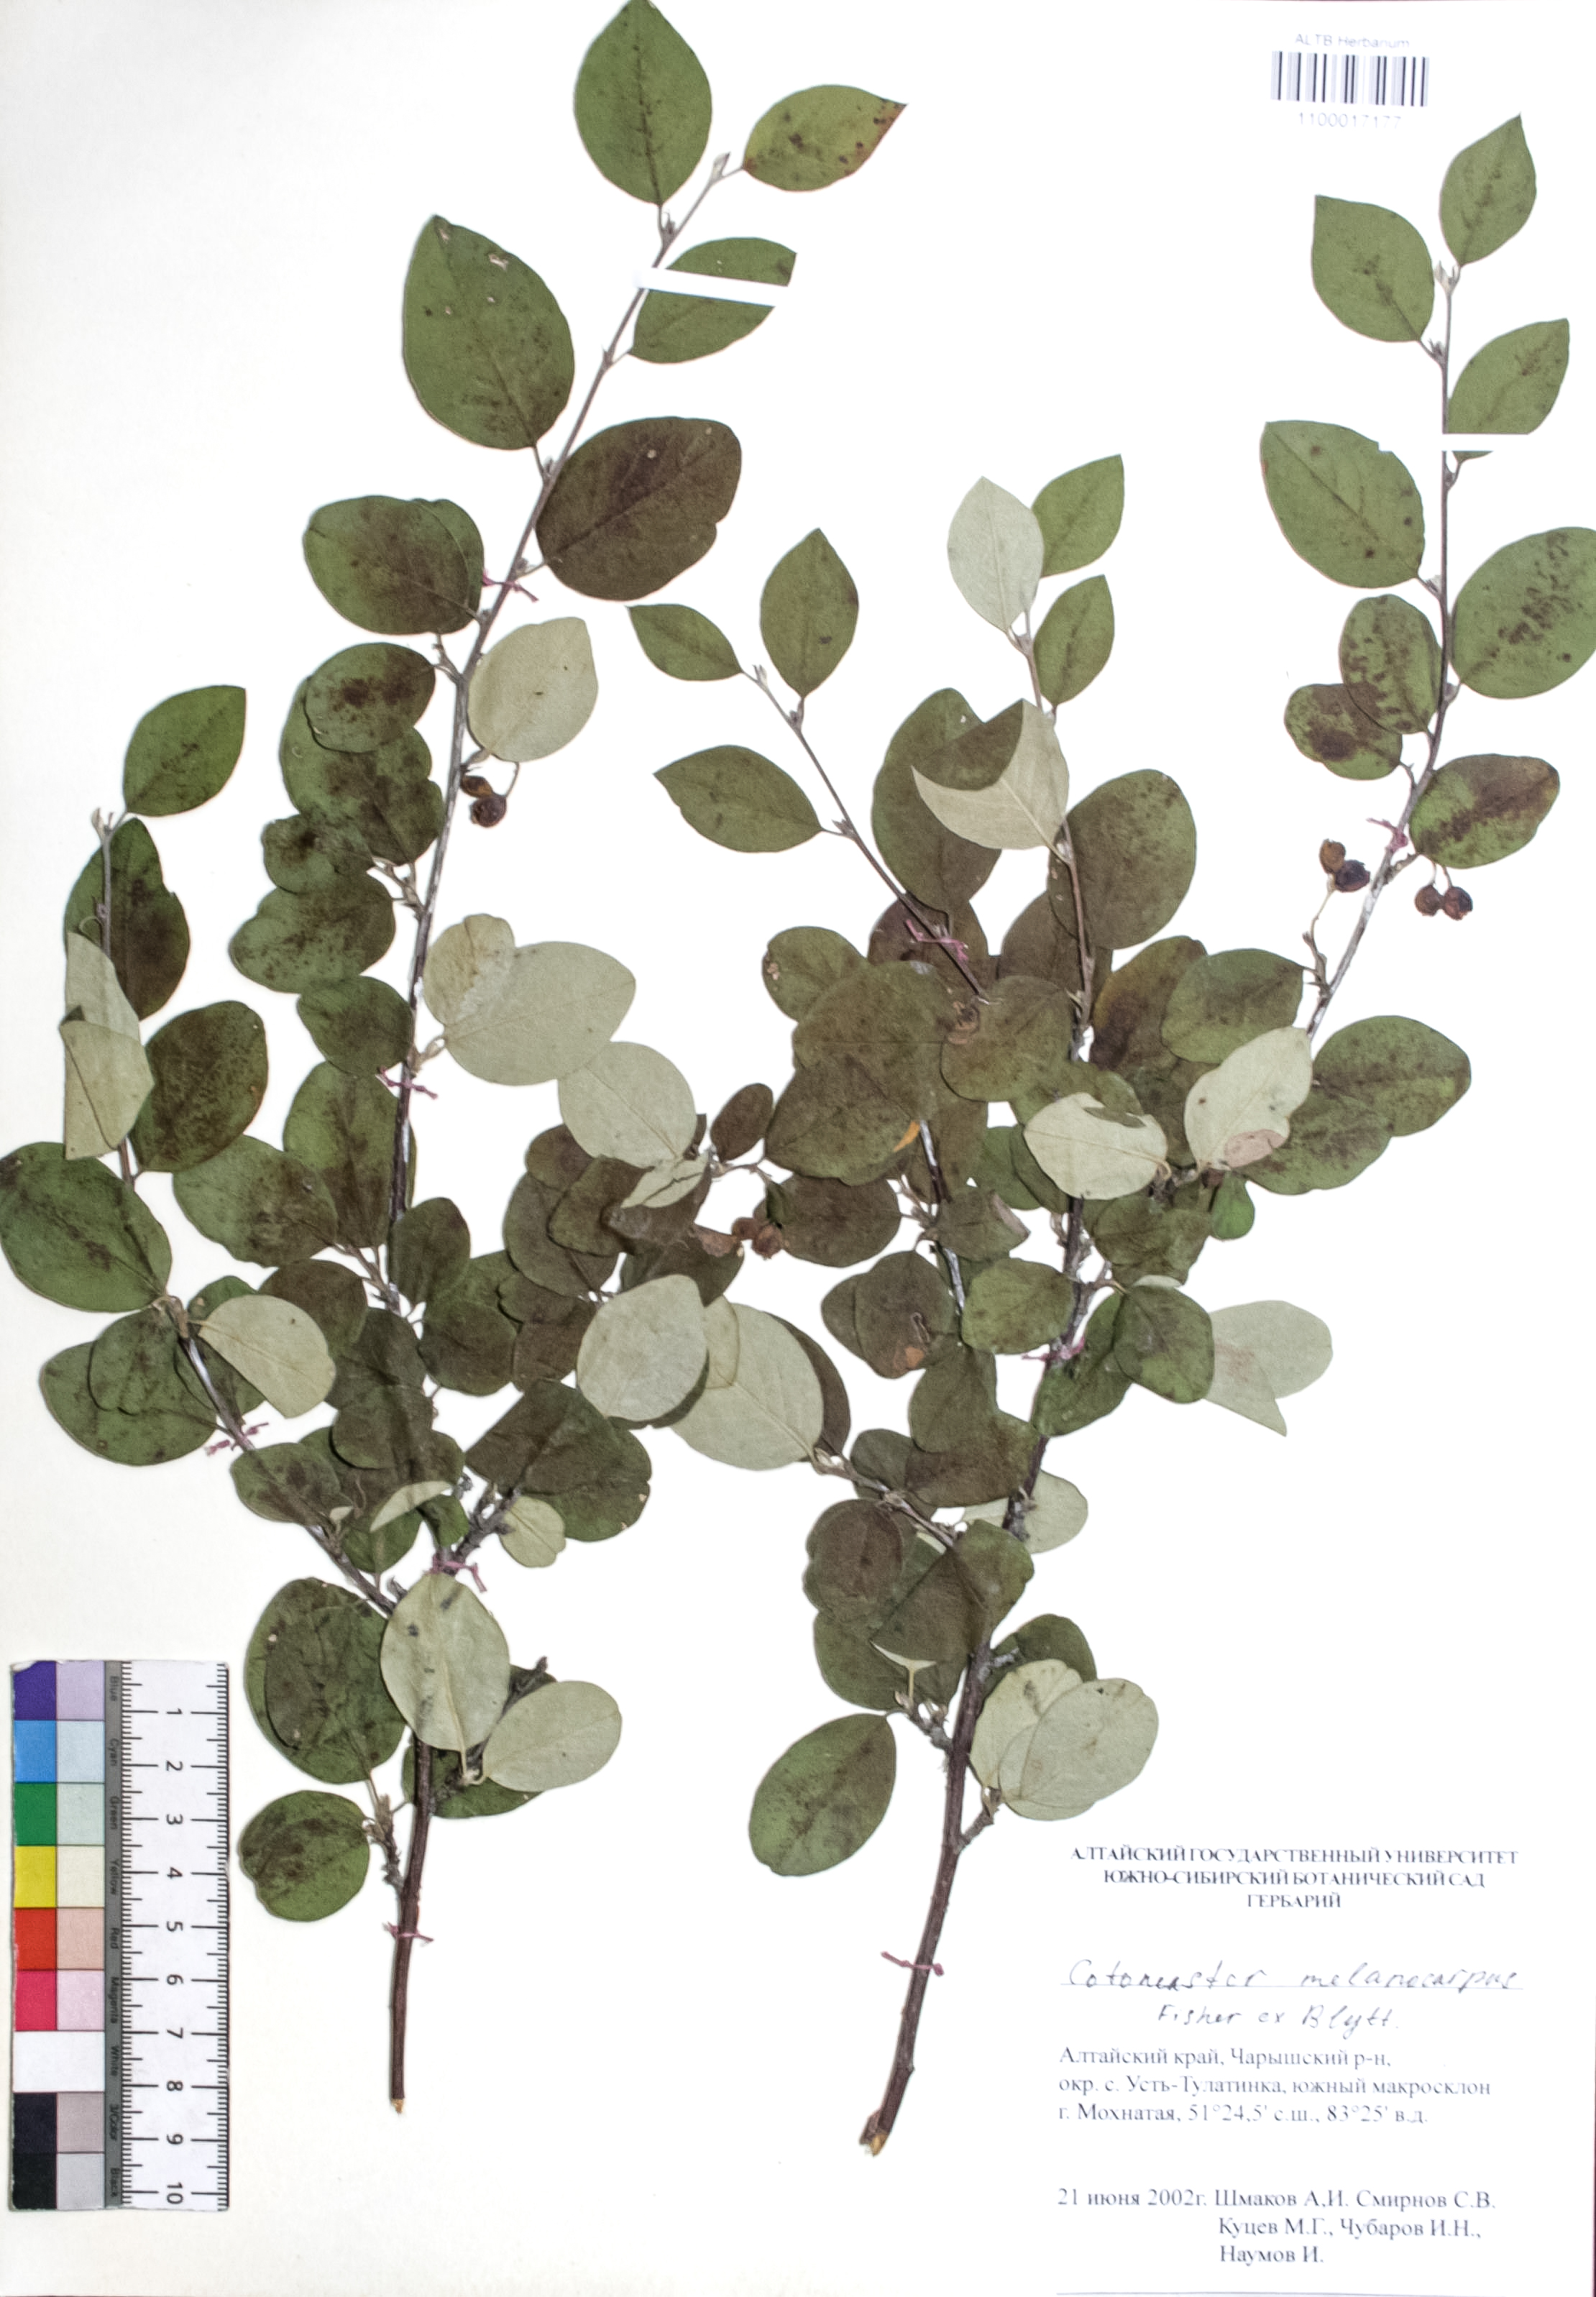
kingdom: Plantae
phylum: Tracheophyta
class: Magnoliopsida
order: Rosales
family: Rosaceae
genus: Cotoneaster
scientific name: Cotoneaster niger
